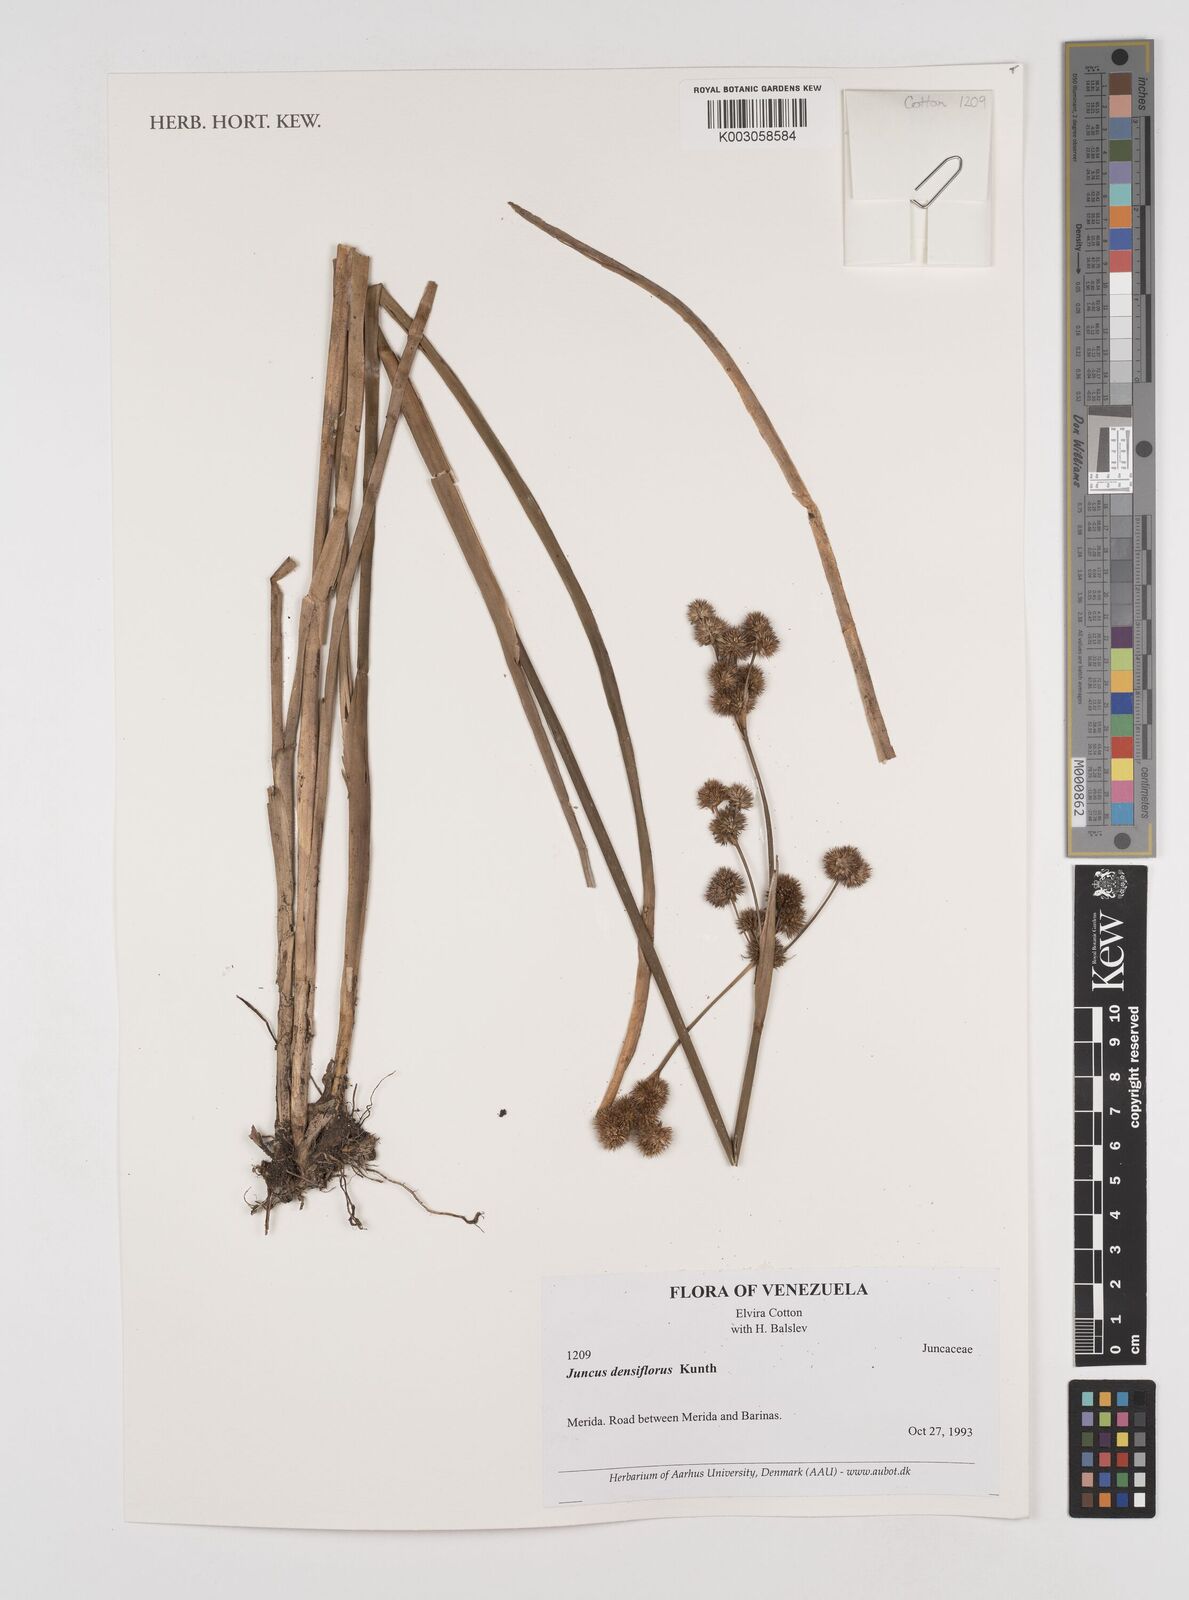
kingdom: Plantae
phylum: Tracheophyta
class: Liliopsida
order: Poales
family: Juncaceae
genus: Juncus
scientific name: Juncus densiflorus
